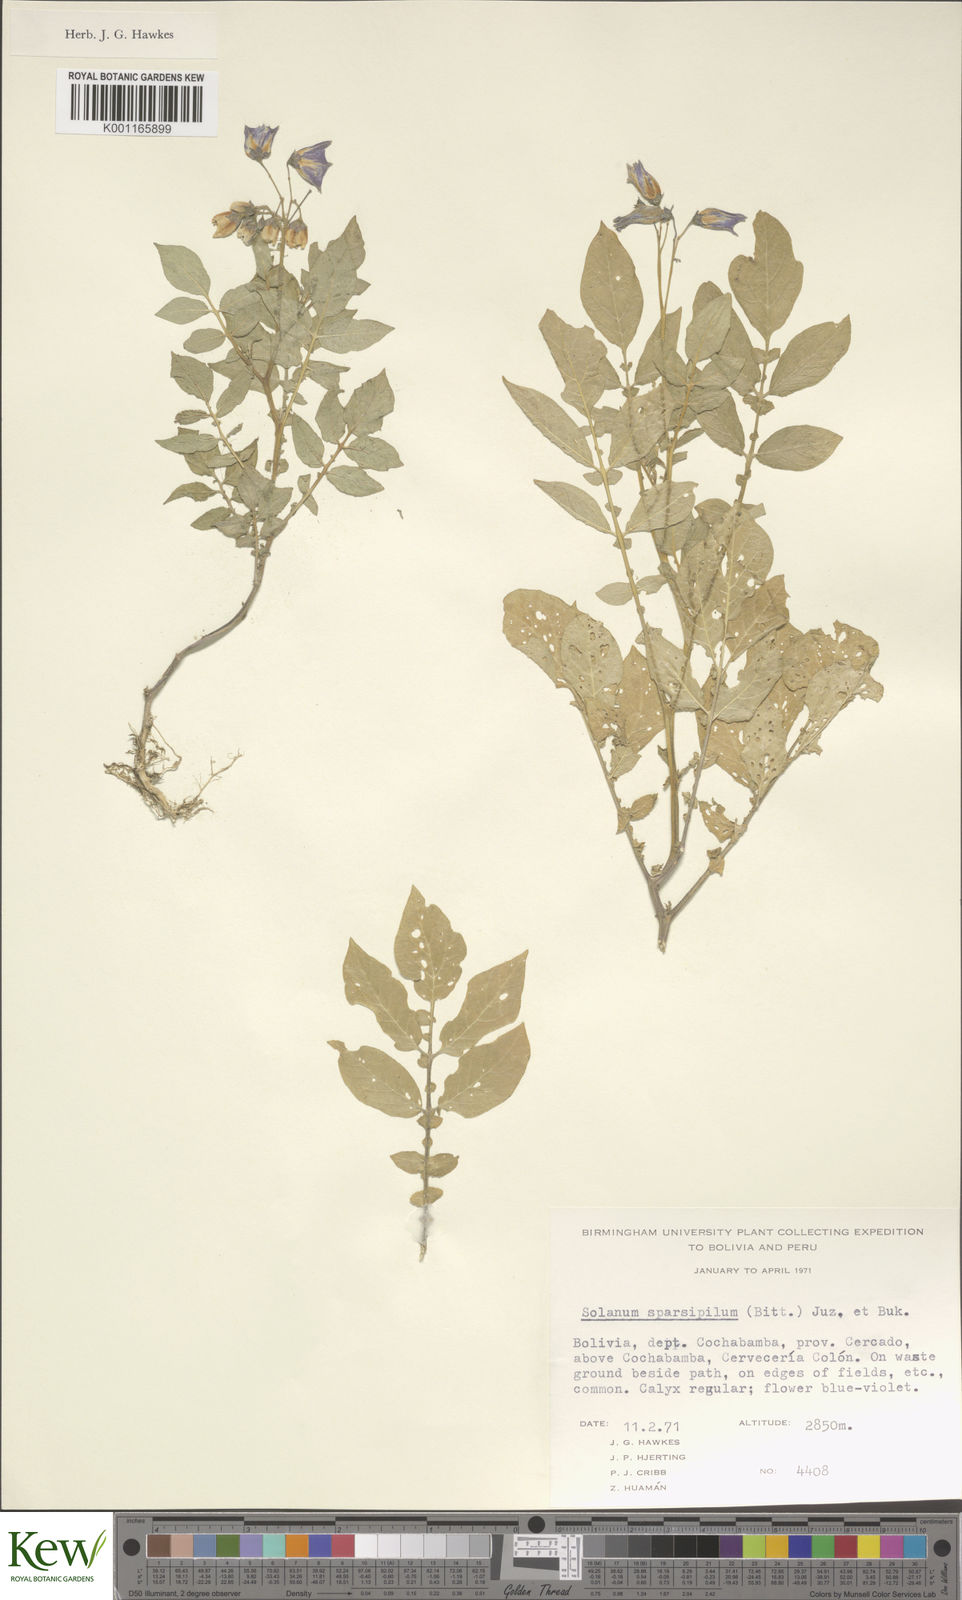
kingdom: Plantae
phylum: Tracheophyta
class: Magnoliopsida
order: Solanales
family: Solanaceae
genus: Solanum
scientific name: Solanum brevicaule
